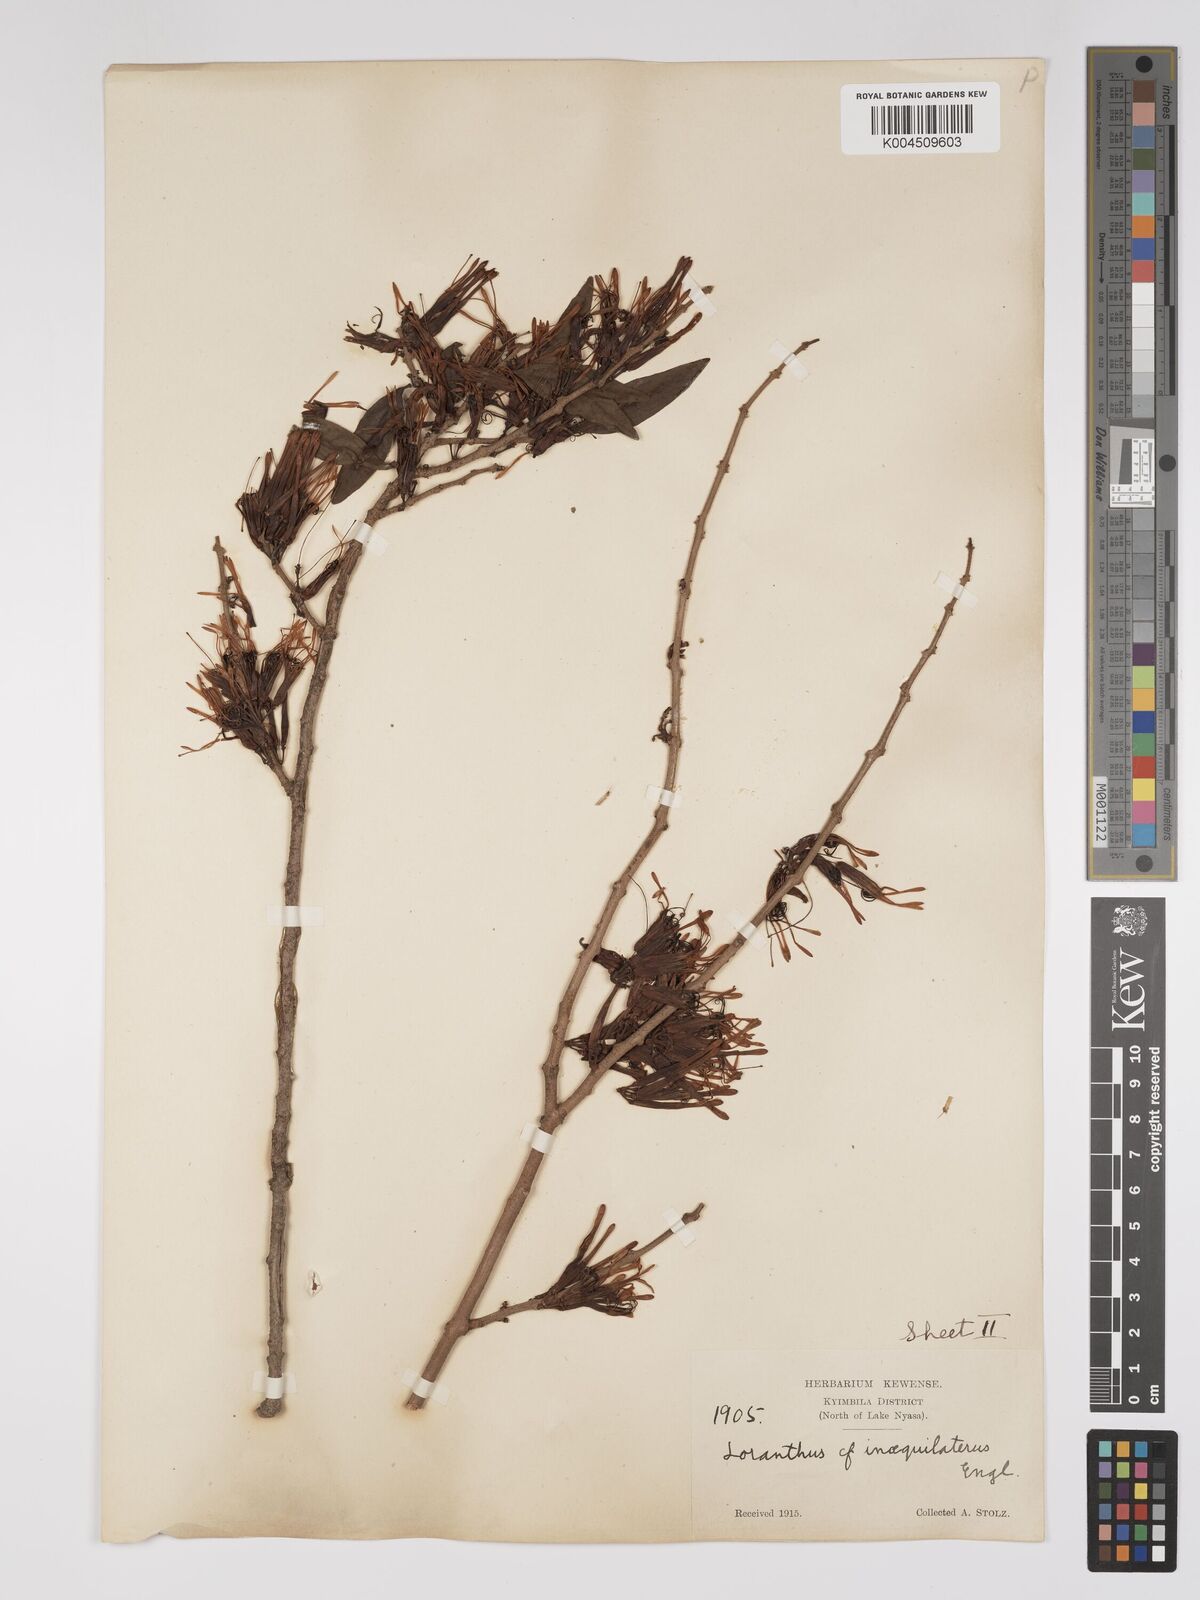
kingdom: Plantae
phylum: Tracheophyta
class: Magnoliopsida
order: Santalales
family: Loranthaceae
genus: Englerina
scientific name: Englerina inaequilatera
